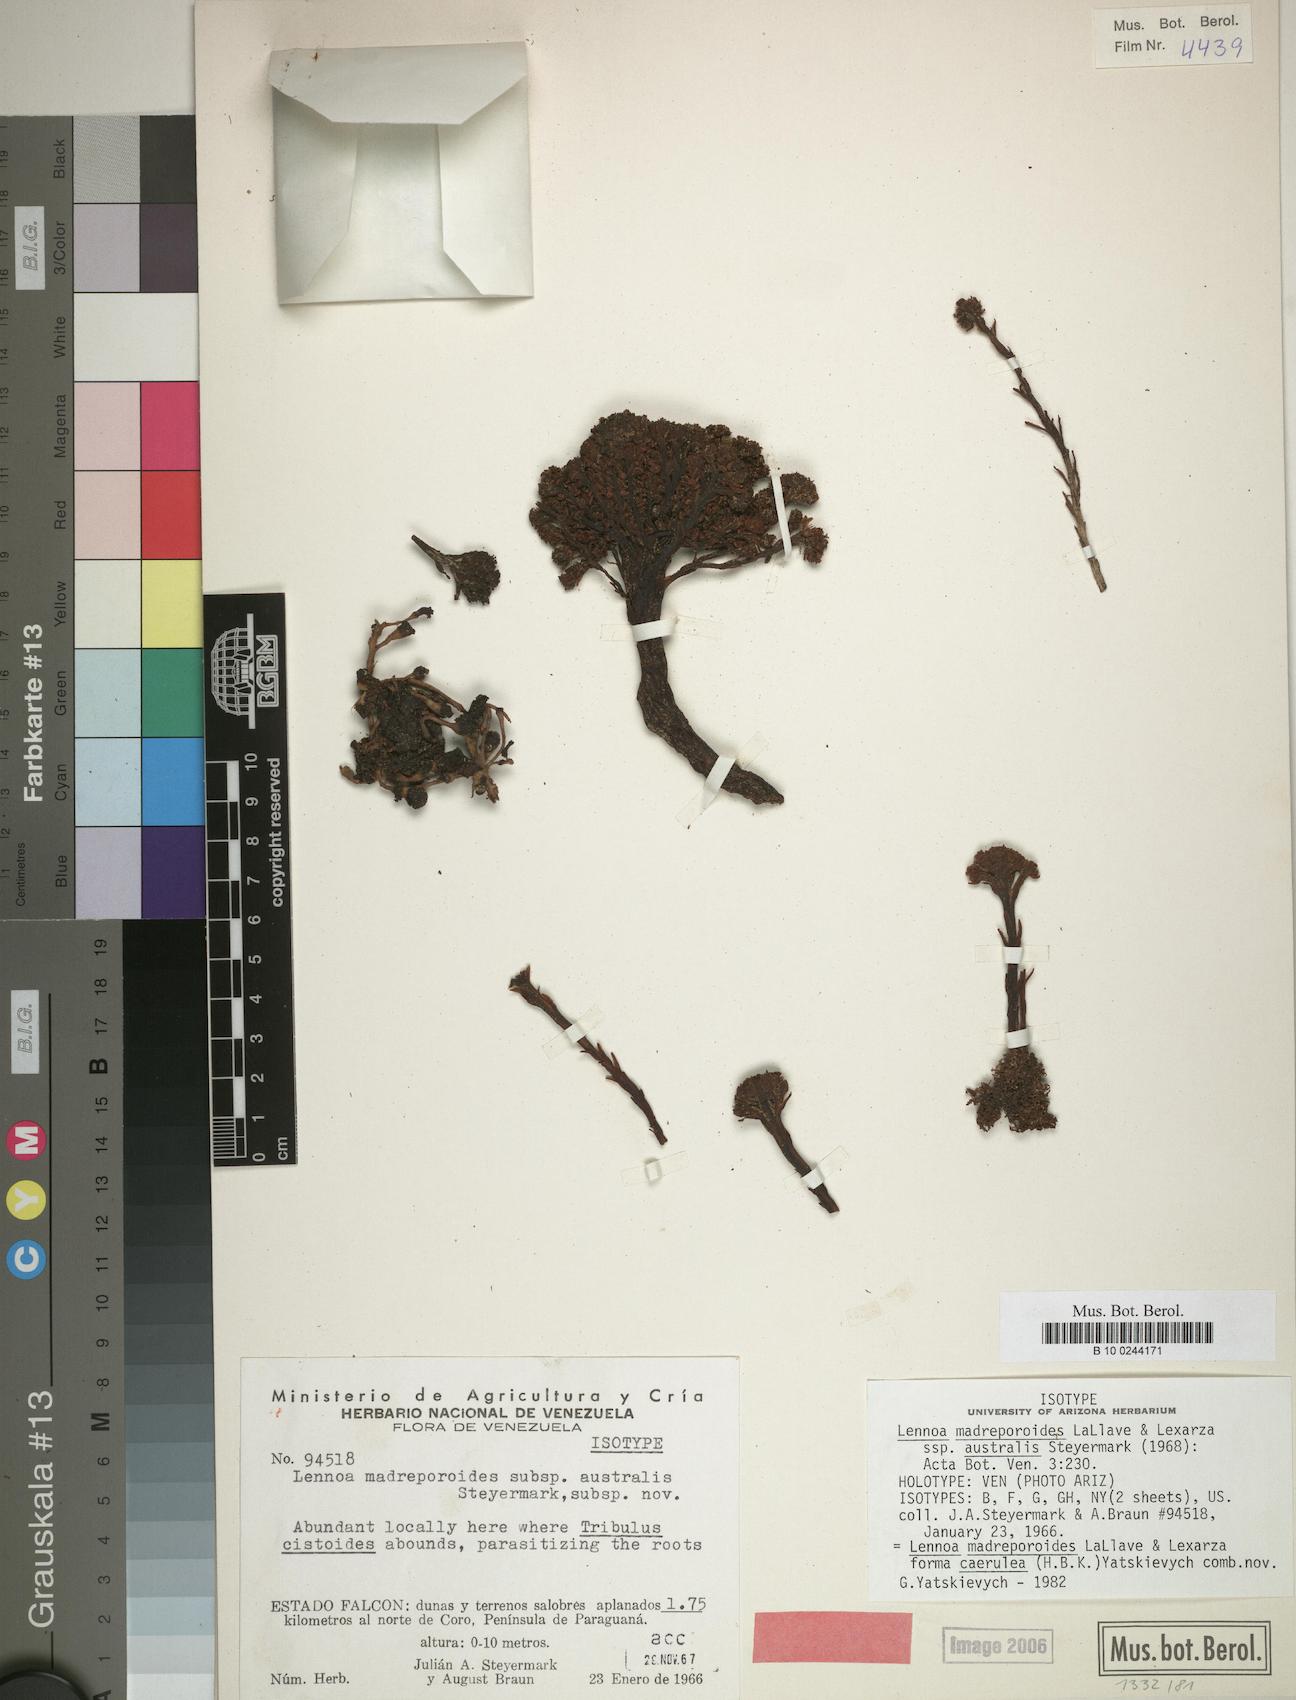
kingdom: Plantae
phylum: Tracheophyta
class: Magnoliopsida
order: Boraginales
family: Lennoaceae
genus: Lennoa
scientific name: Lennoa madreporoides
